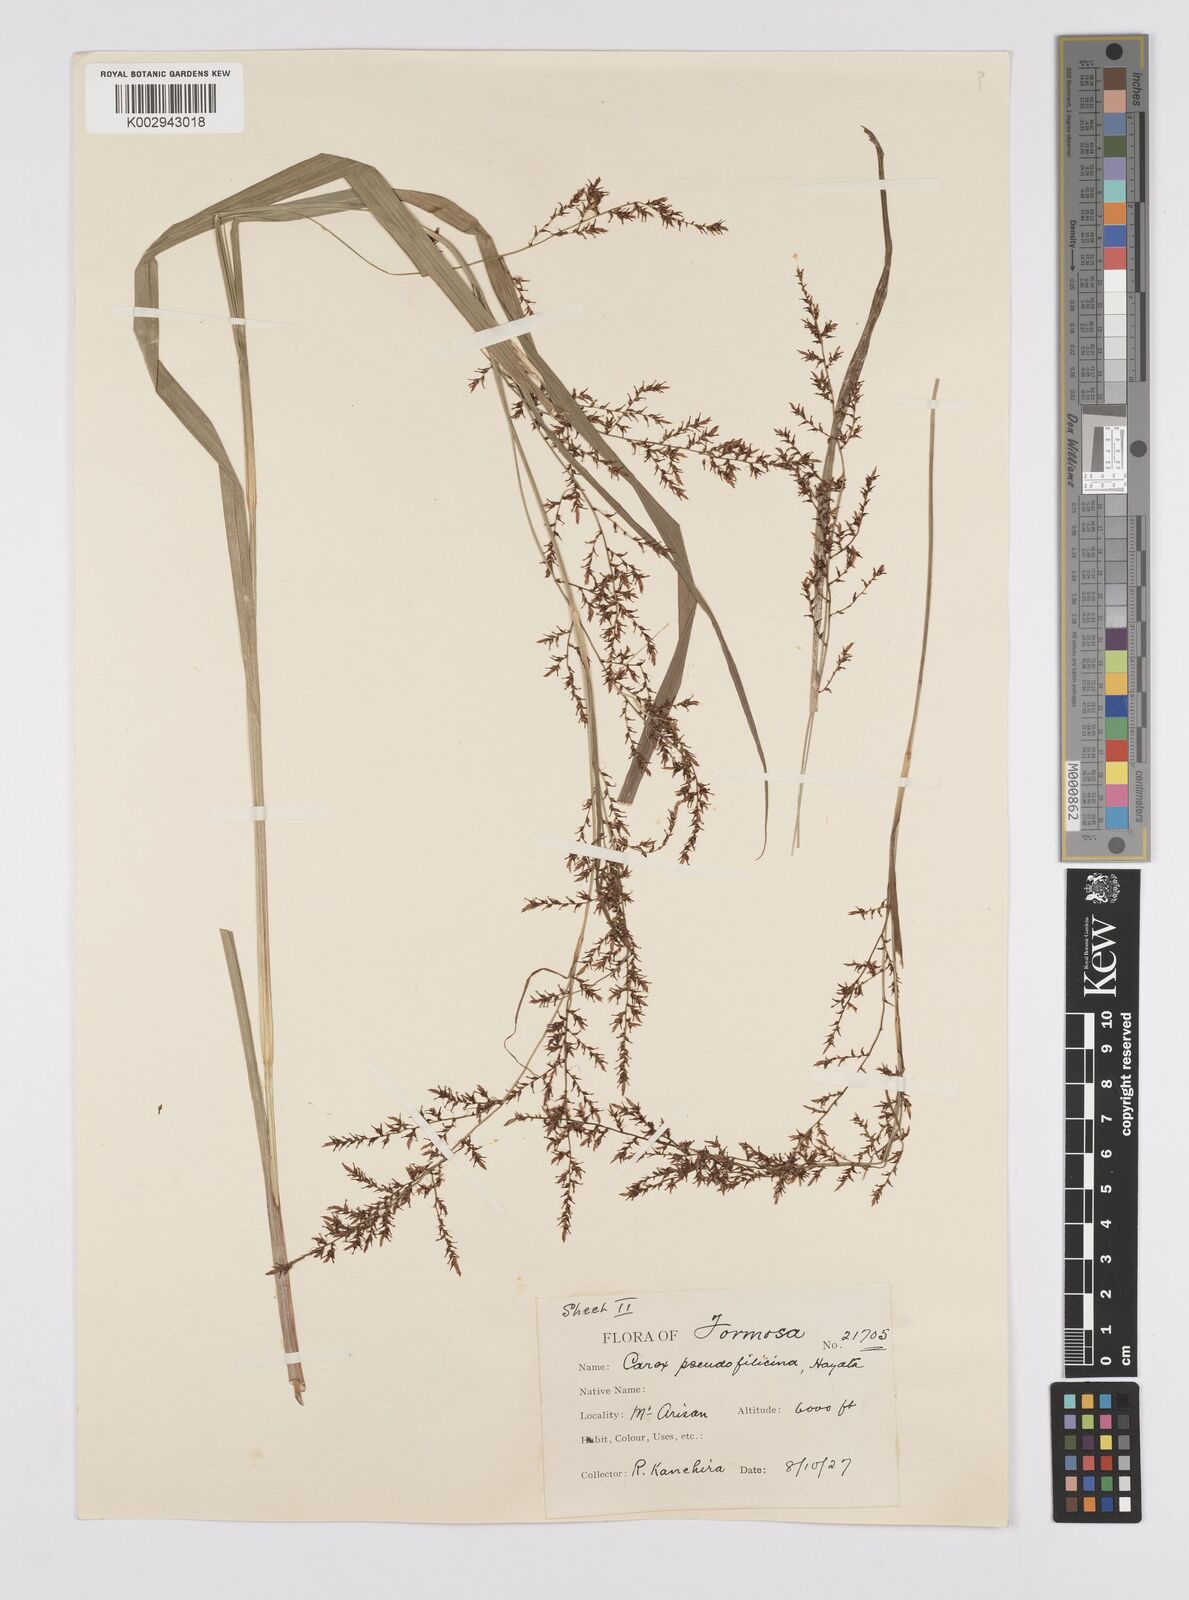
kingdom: Plantae
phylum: Tracheophyta
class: Liliopsida
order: Poales
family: Cyperaceae
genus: Carex
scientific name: Carex nubigena
